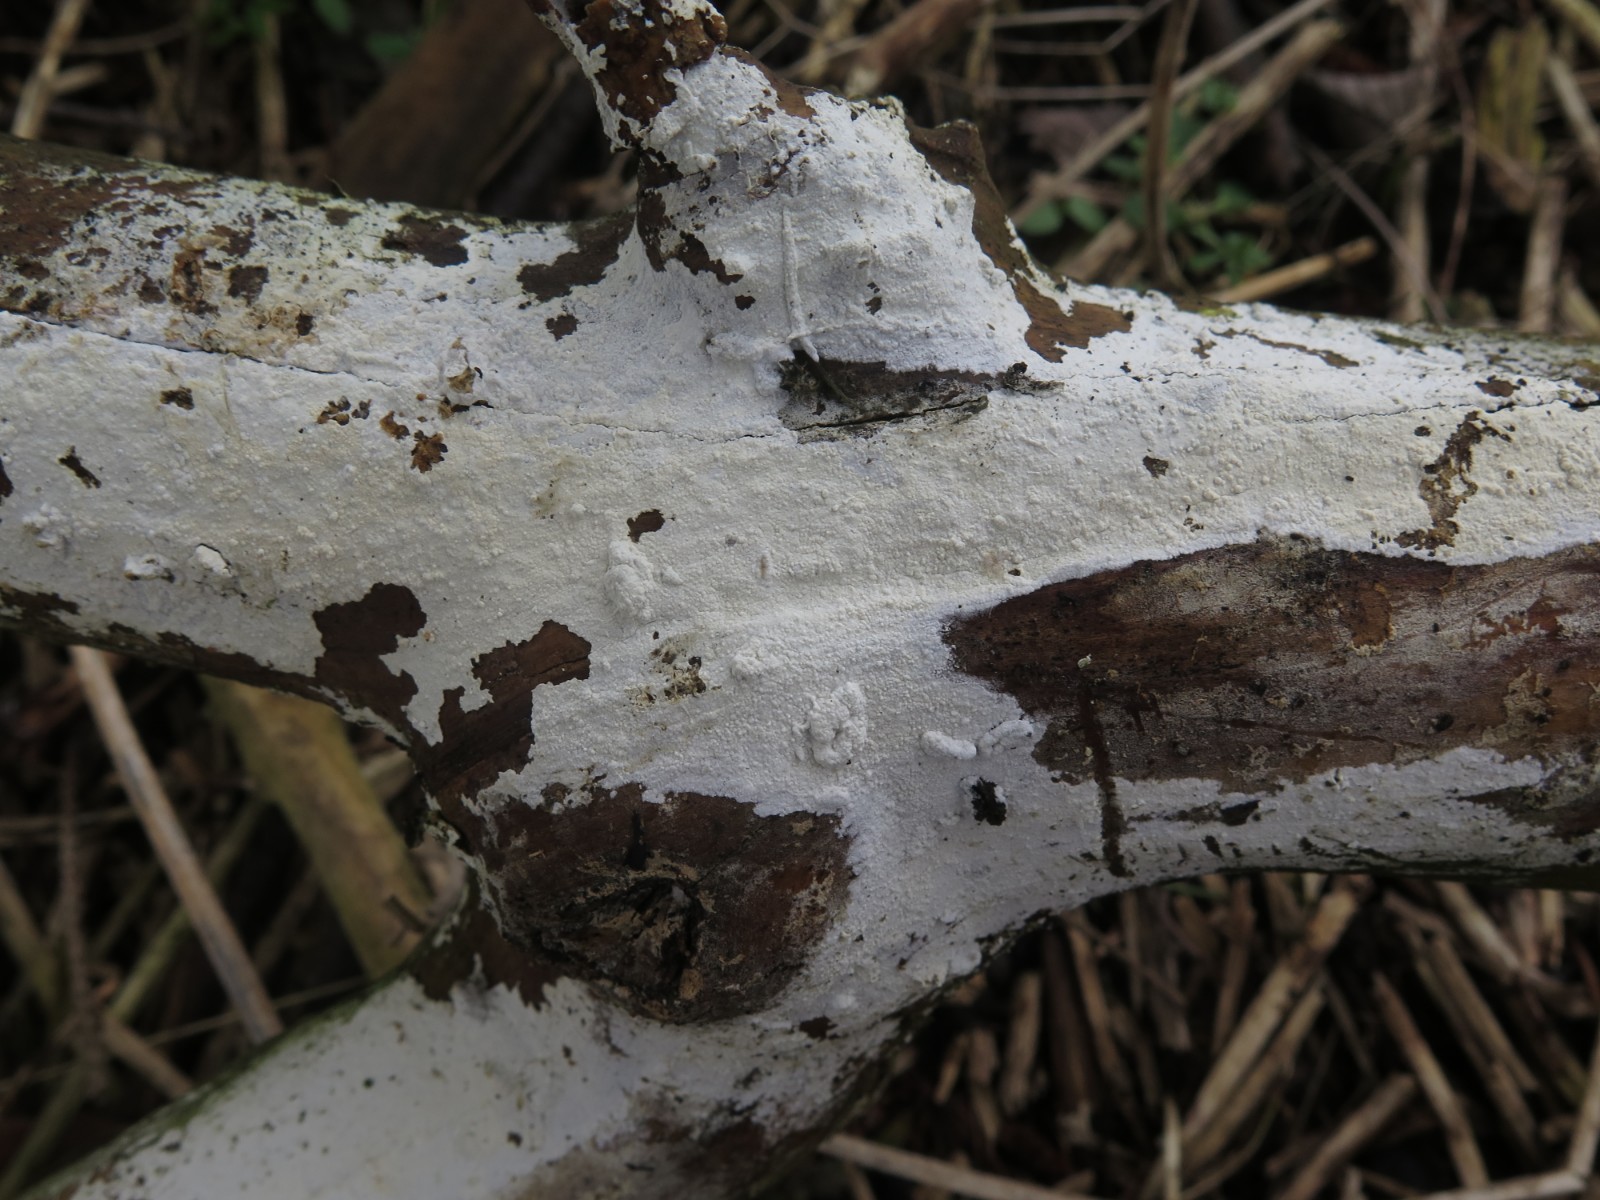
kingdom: Fungi
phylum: Basidiomycota
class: Agaricomycetes
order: Corticiales
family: Corticiaceae
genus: Lyomyces
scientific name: Lyomyces sambuci
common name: almindelig hyldehinde
